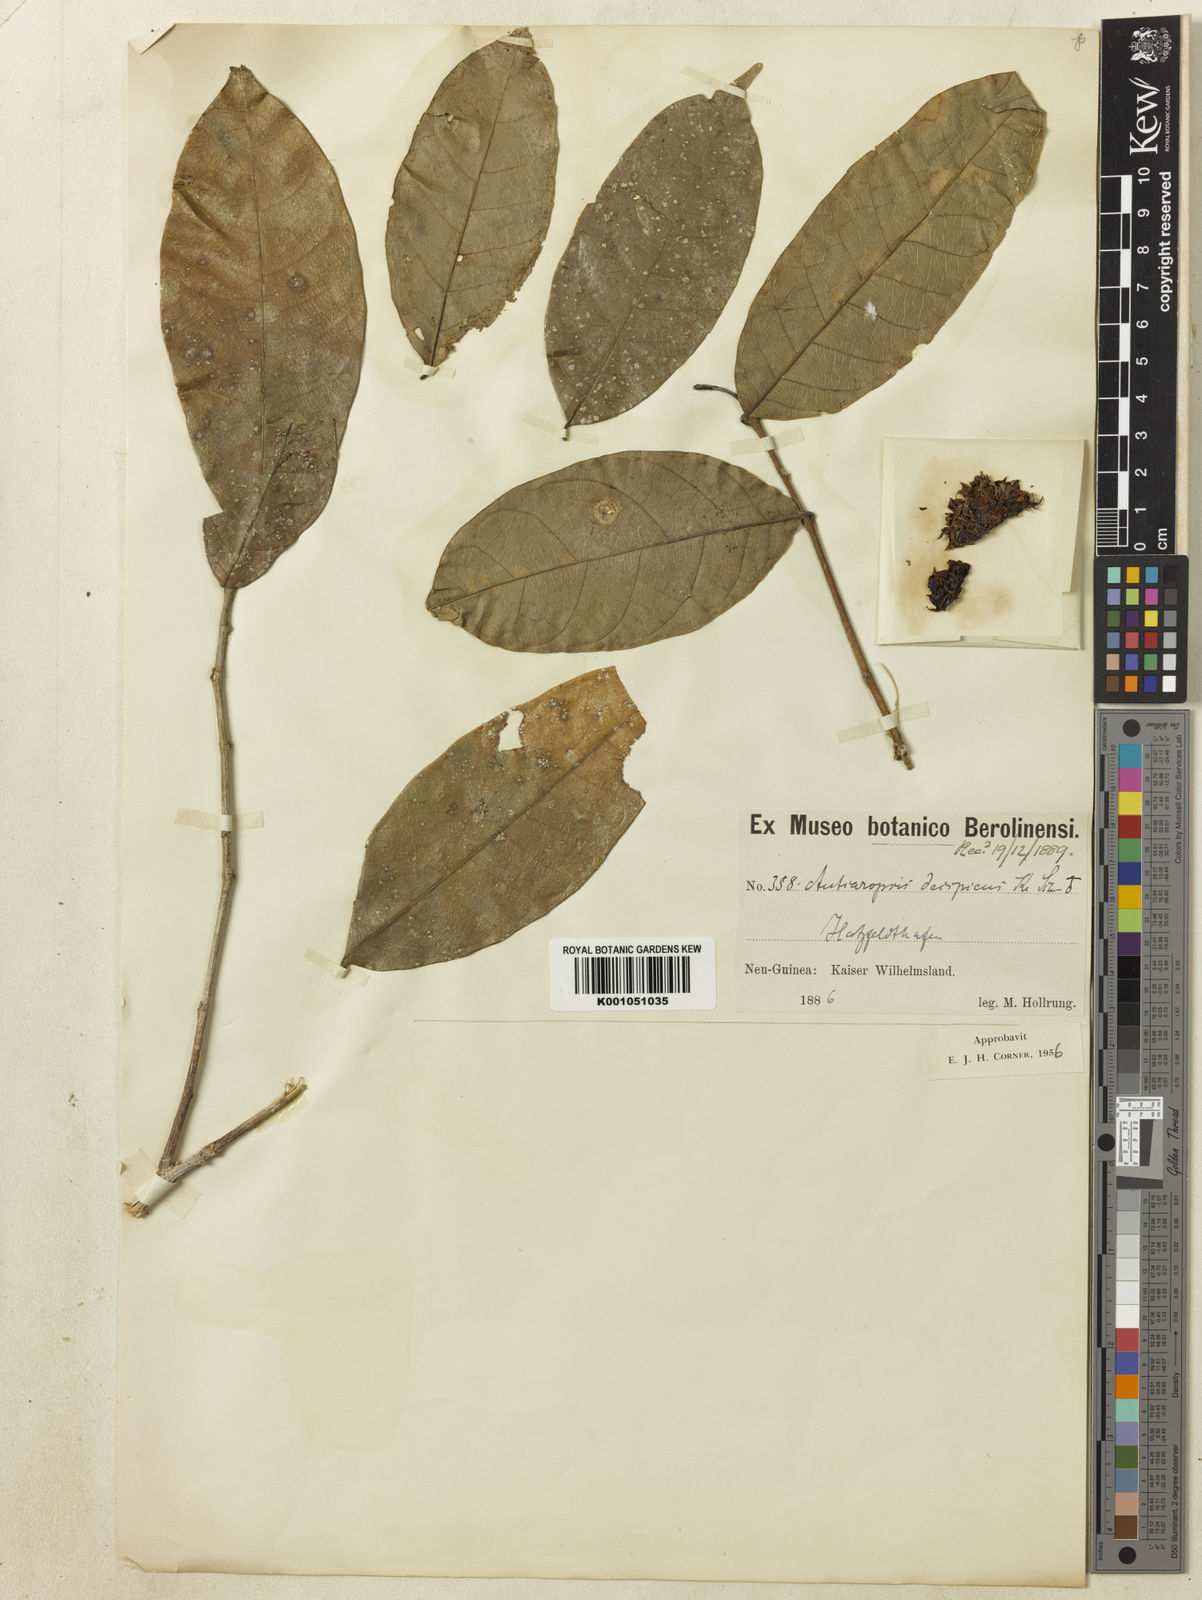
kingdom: Plantae
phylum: Tracheophyta
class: Magnoliopsida
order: Rosales
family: Moraceae
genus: Antiaropsis
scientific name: Antiaropsis decipiens
